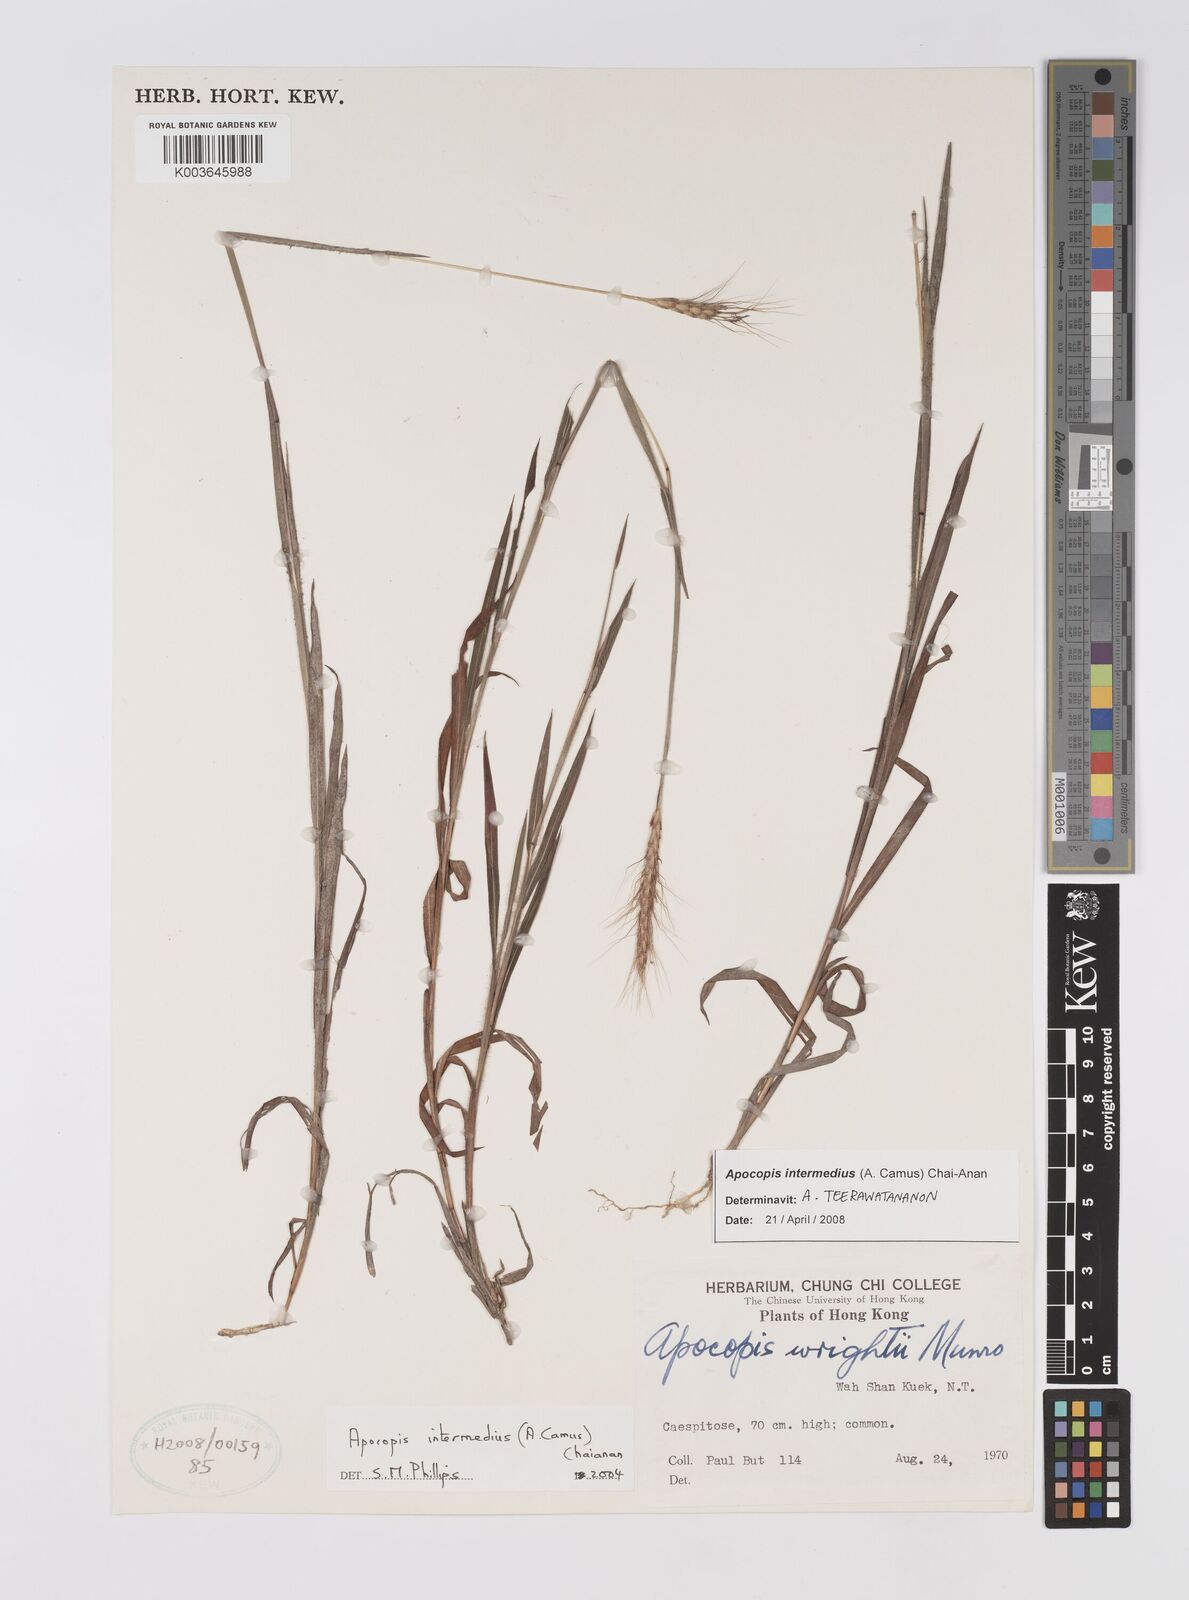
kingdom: Plantae
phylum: Tracheophyta
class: Liliopsida
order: Poales
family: Poaceae
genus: Apocopis
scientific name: Apocopis intermedius
